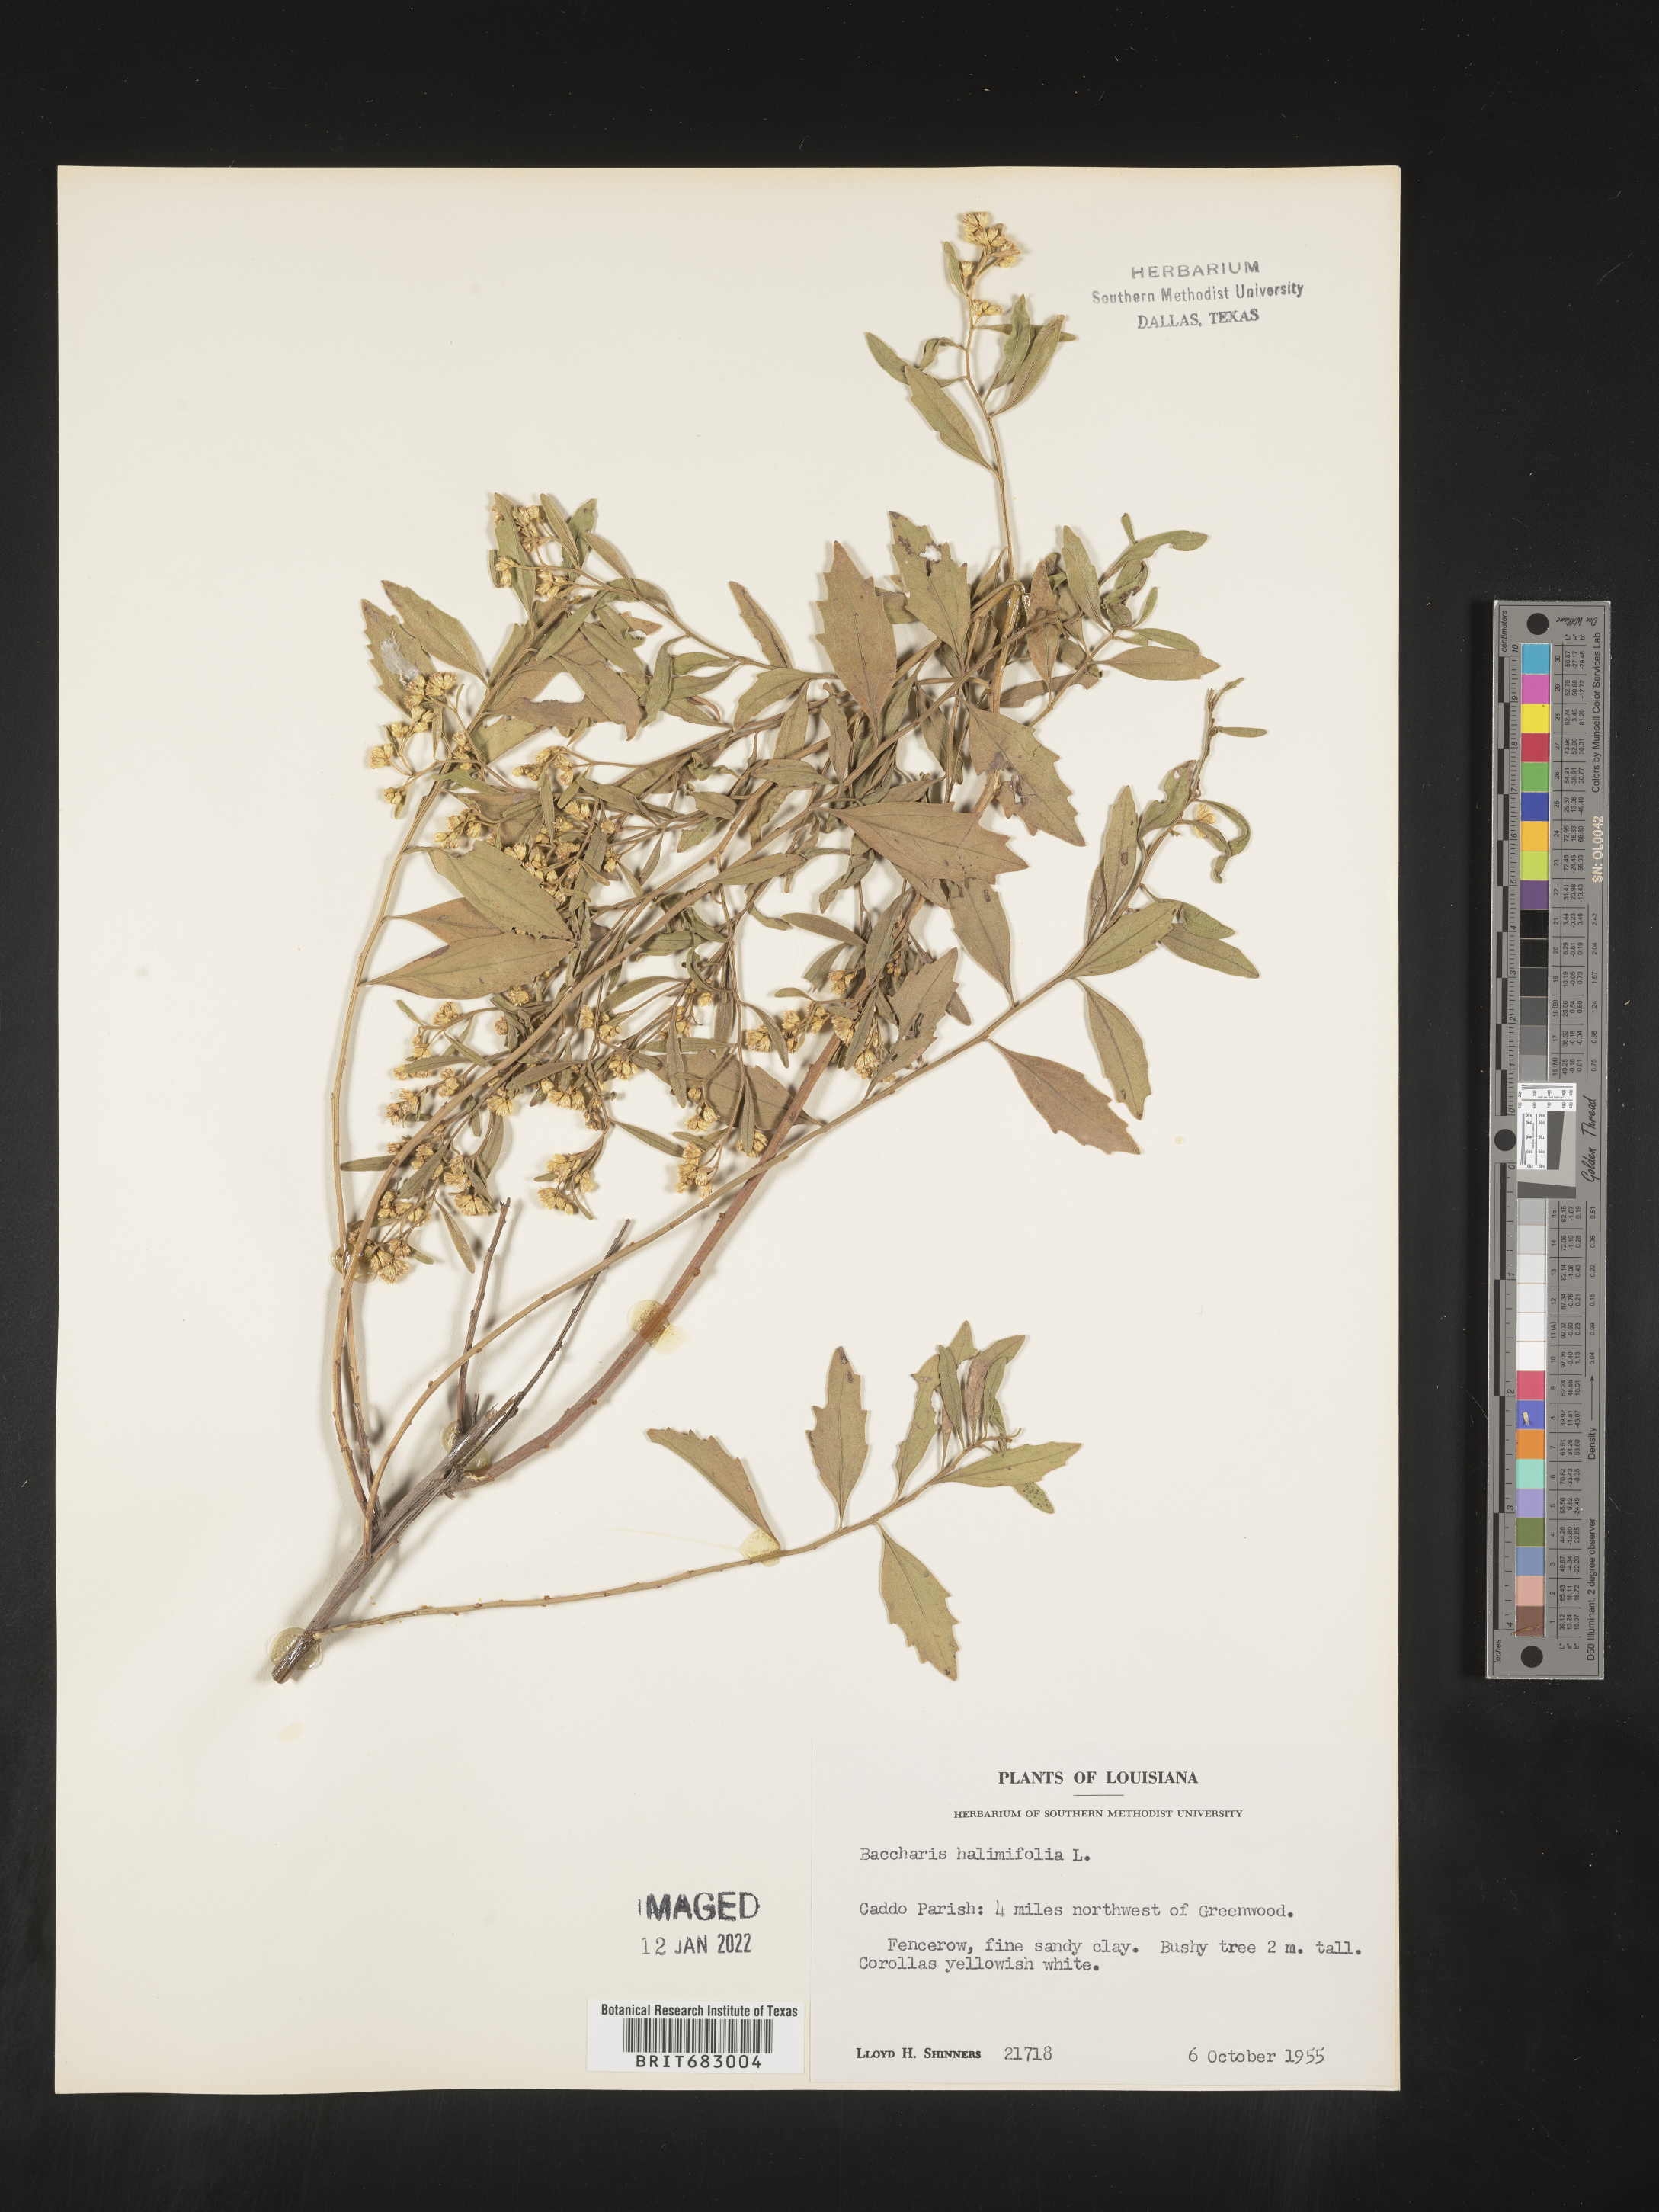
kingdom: Plantae
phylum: Tracheophyta
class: Magnoliopsida
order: Asterales
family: Asteraceae
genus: Nidorella
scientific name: Nidorella ivifolia
